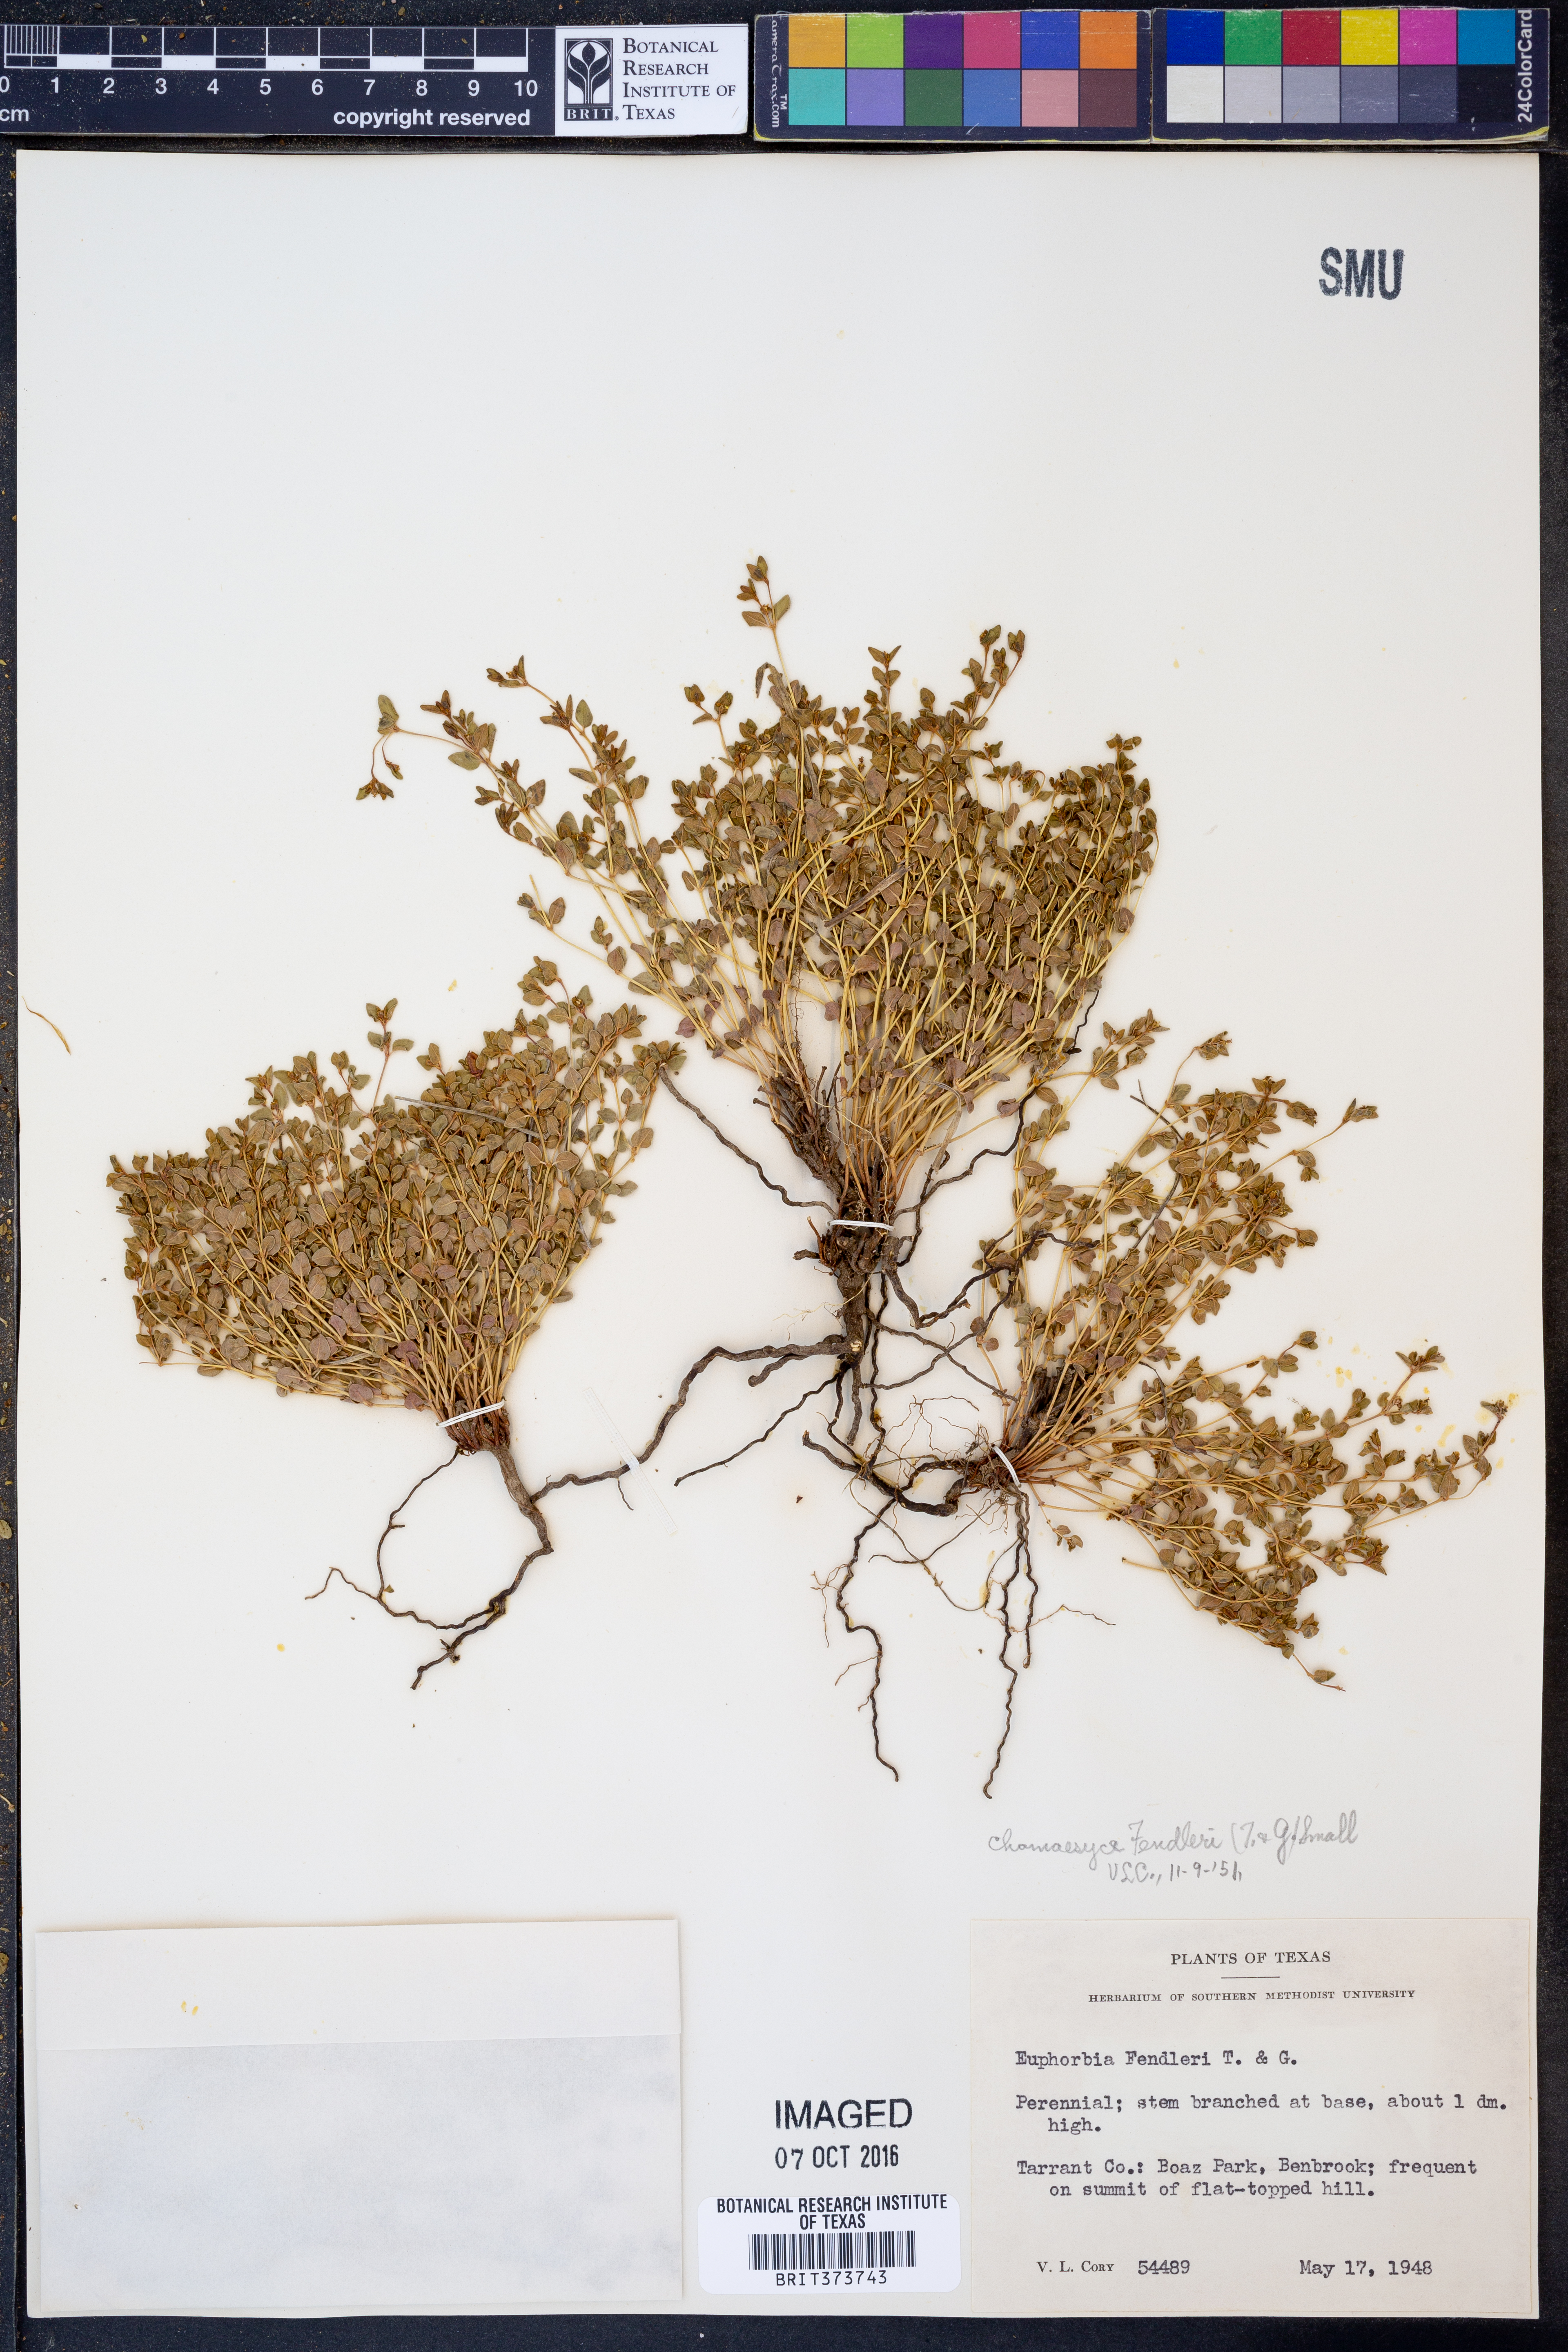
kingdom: Plantae
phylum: Tracheophyta
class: Magnoliopsida
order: Malpighiales
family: Euphorbiaceae
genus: Euphorbia
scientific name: Euphorbia fendleri
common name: Fendler's euphorbia
